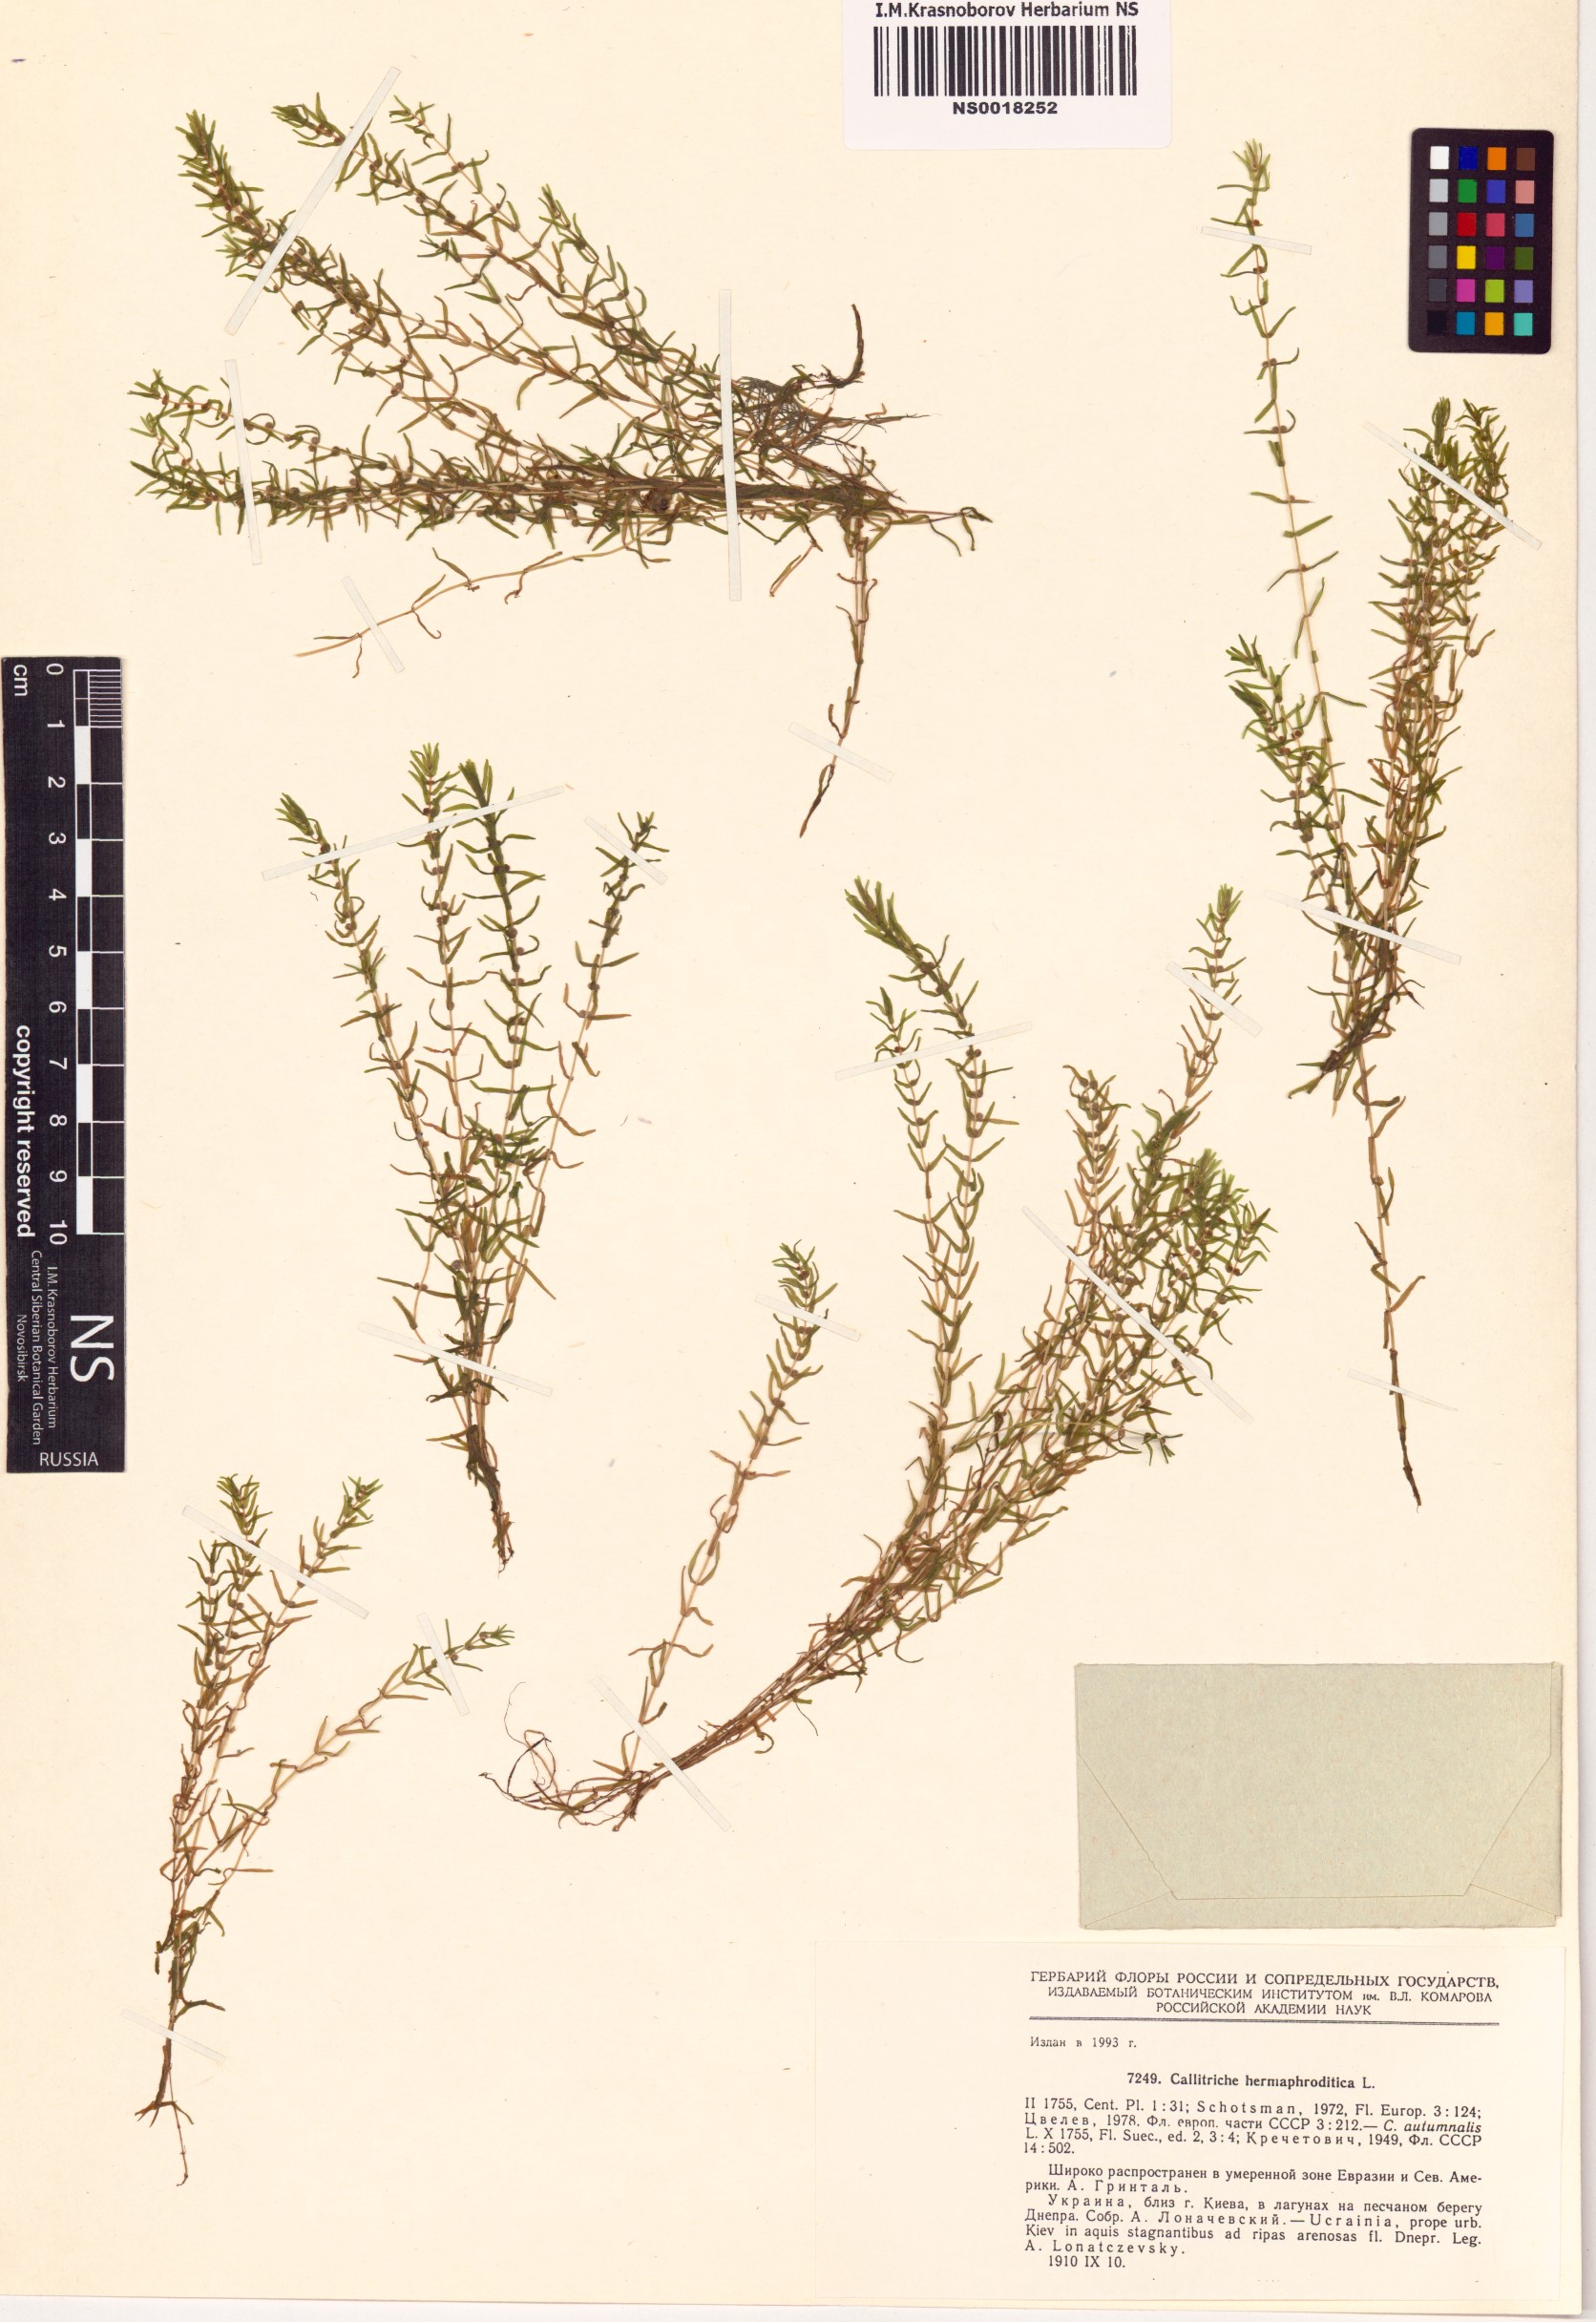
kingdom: Plantae
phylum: Tracheophyta
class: Magnoliopsida
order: Lamiales
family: Plantaginaceae
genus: Callitriche
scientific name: Callitriche hermaphroditica
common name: Autumnal water-starwort
